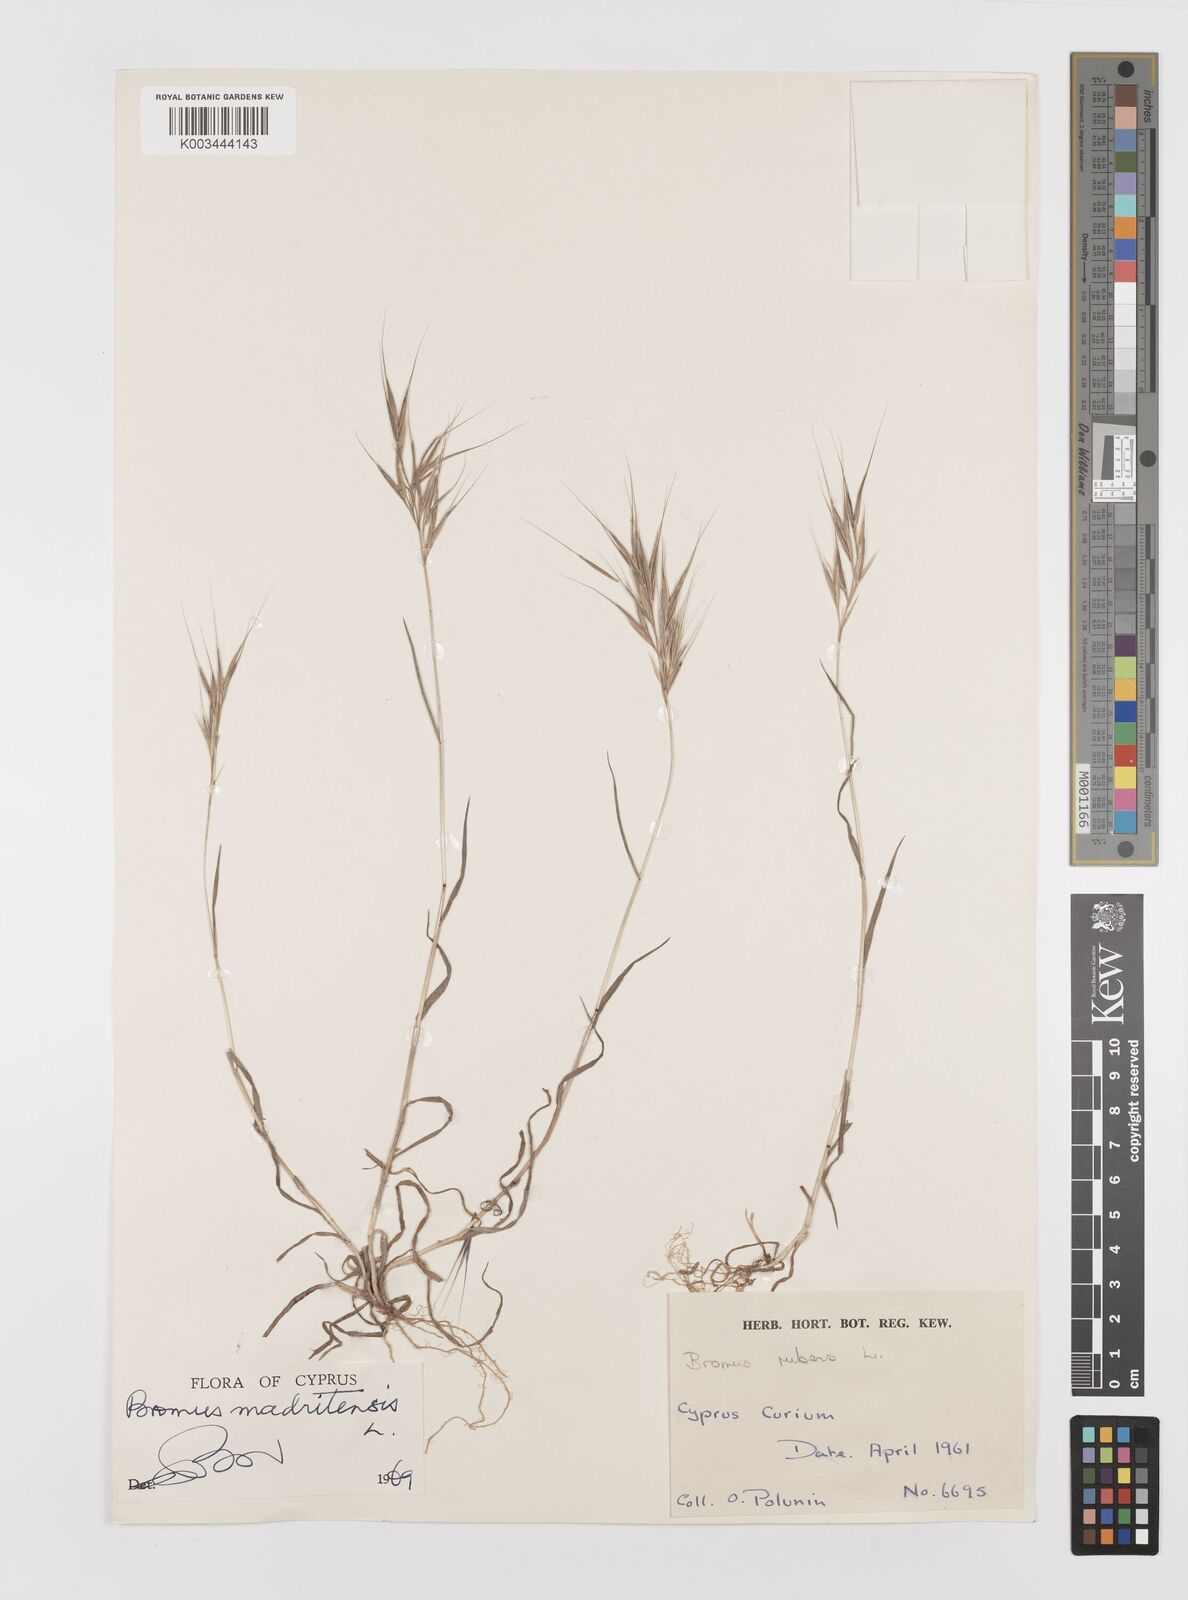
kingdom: Plantae
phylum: Tracheophyta
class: Liliopsida
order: Poales
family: Poaceae
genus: Bromus
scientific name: Bromus madritensis
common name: Compact brome
